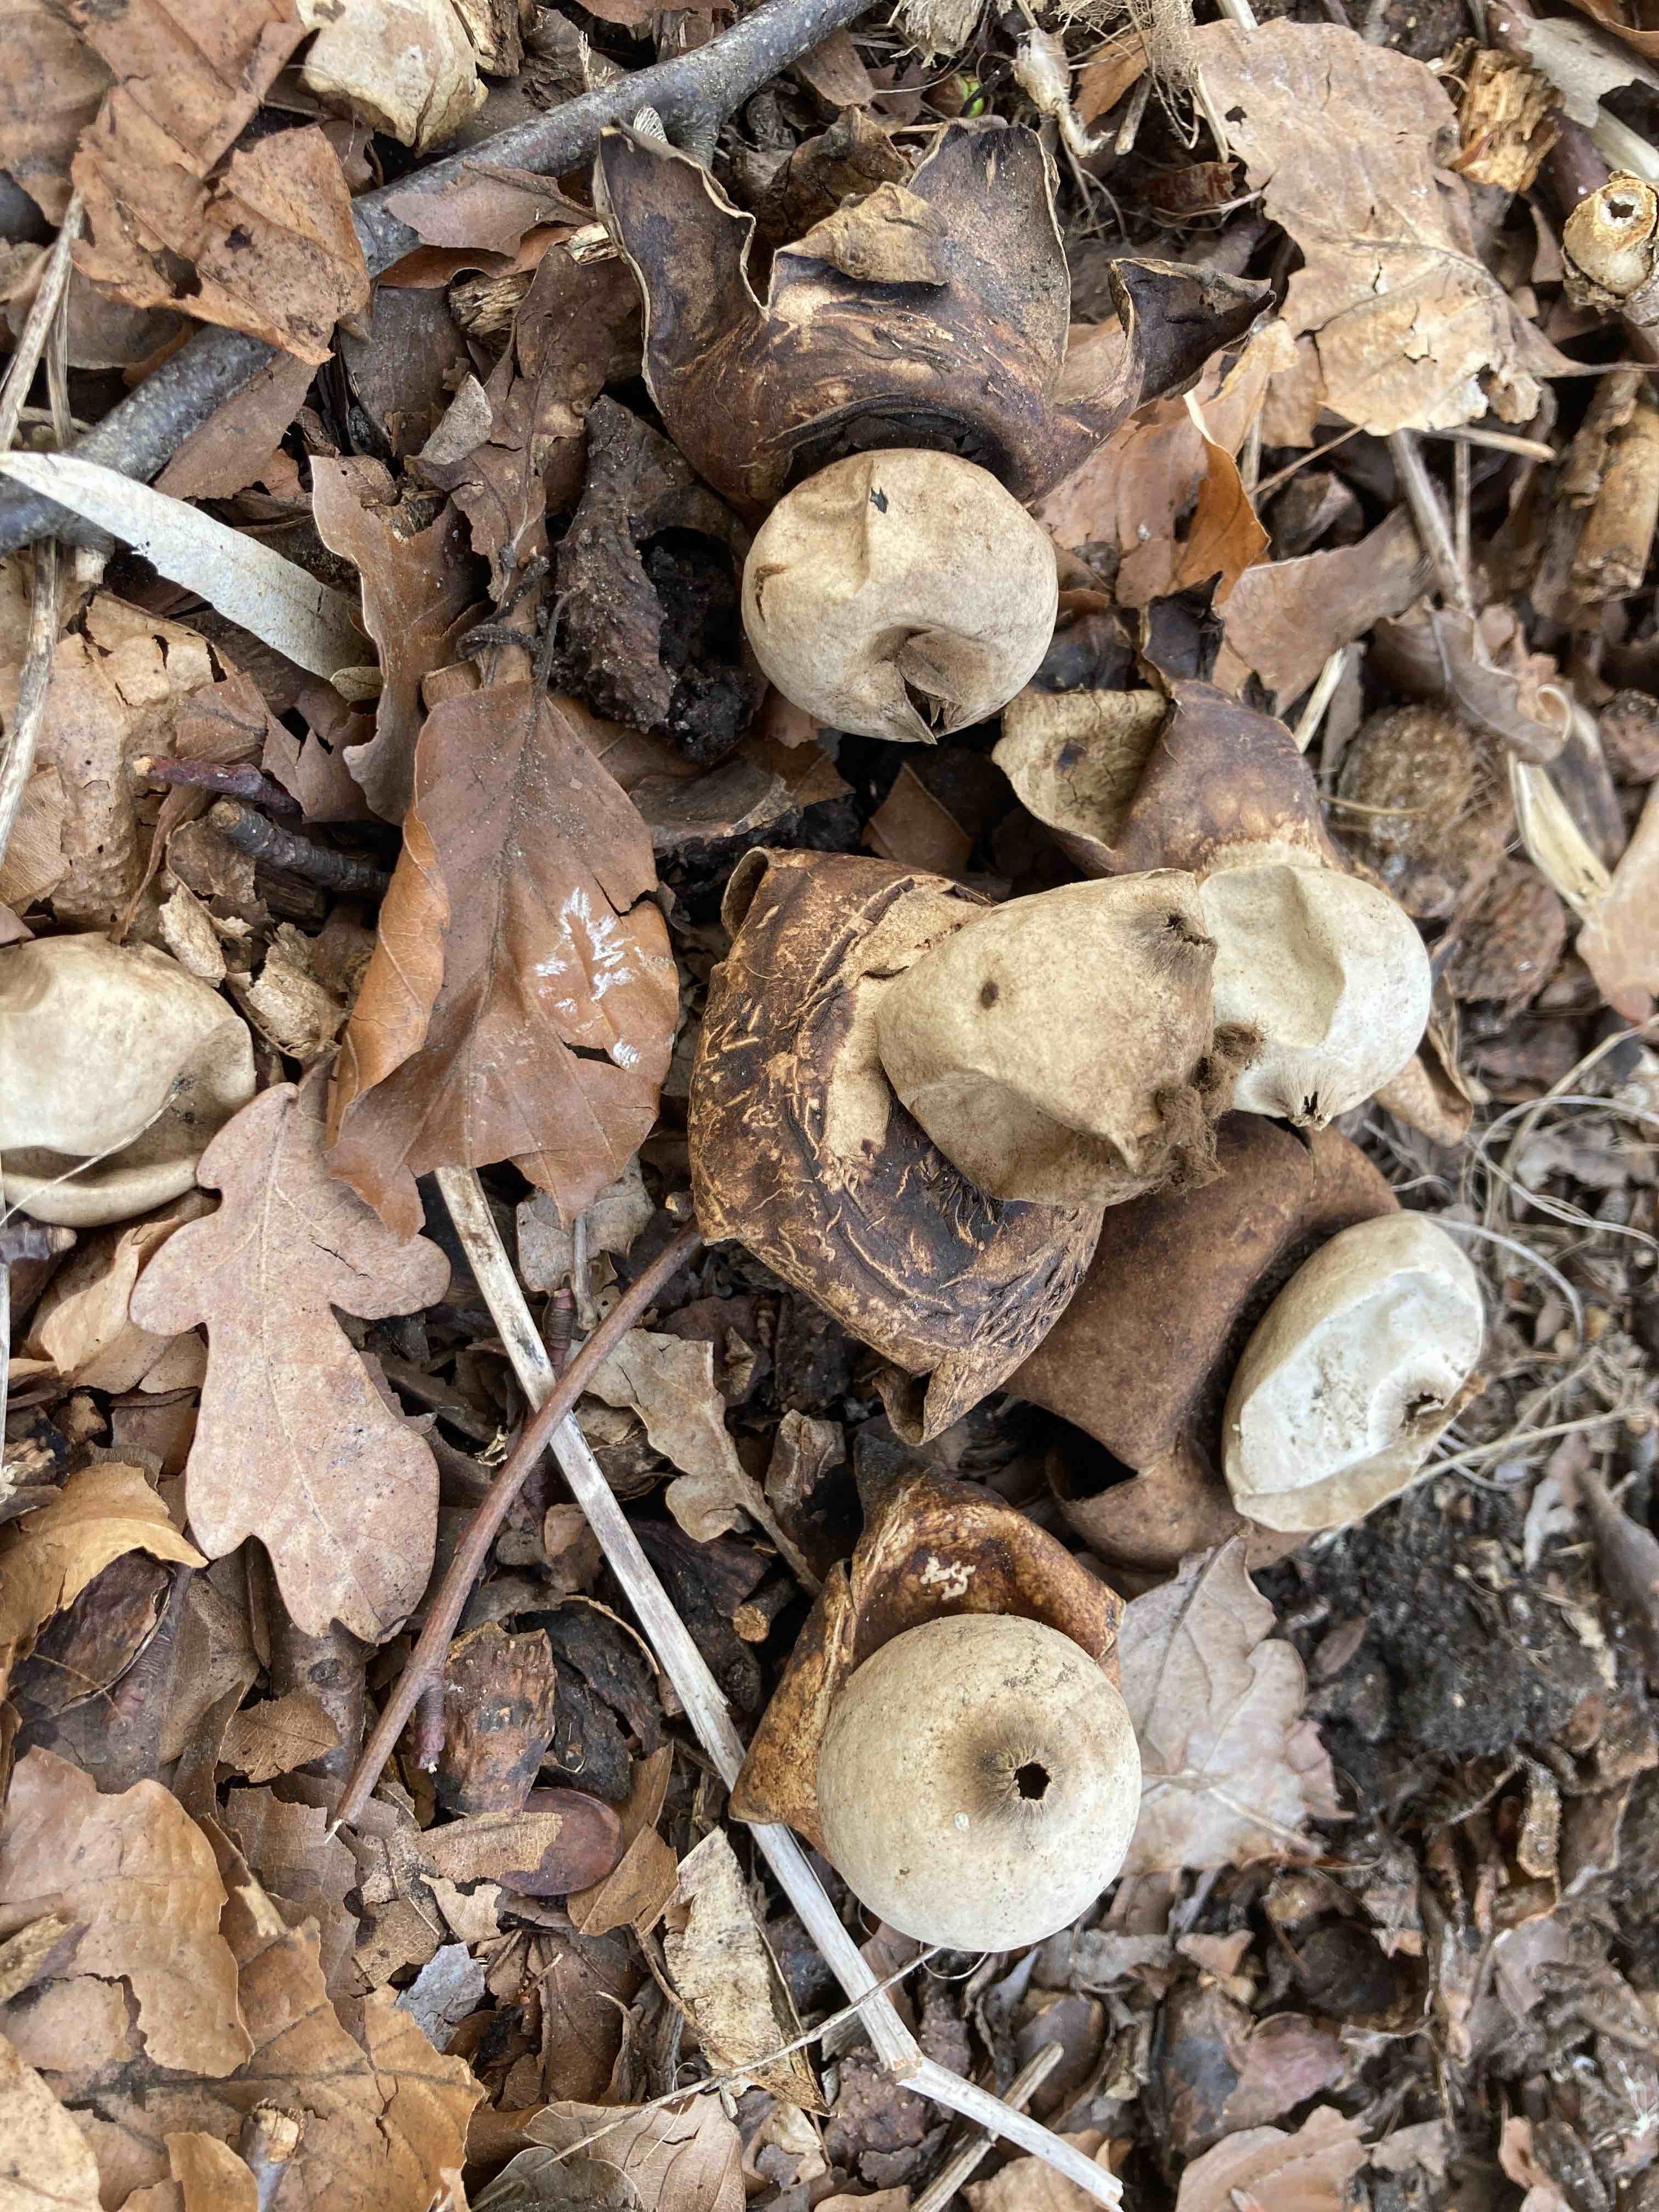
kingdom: Fungi
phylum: Basidiomycota
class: Agaricomycetes
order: Geastrales
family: Geastraceae
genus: Geastrum
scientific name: Geastrum
